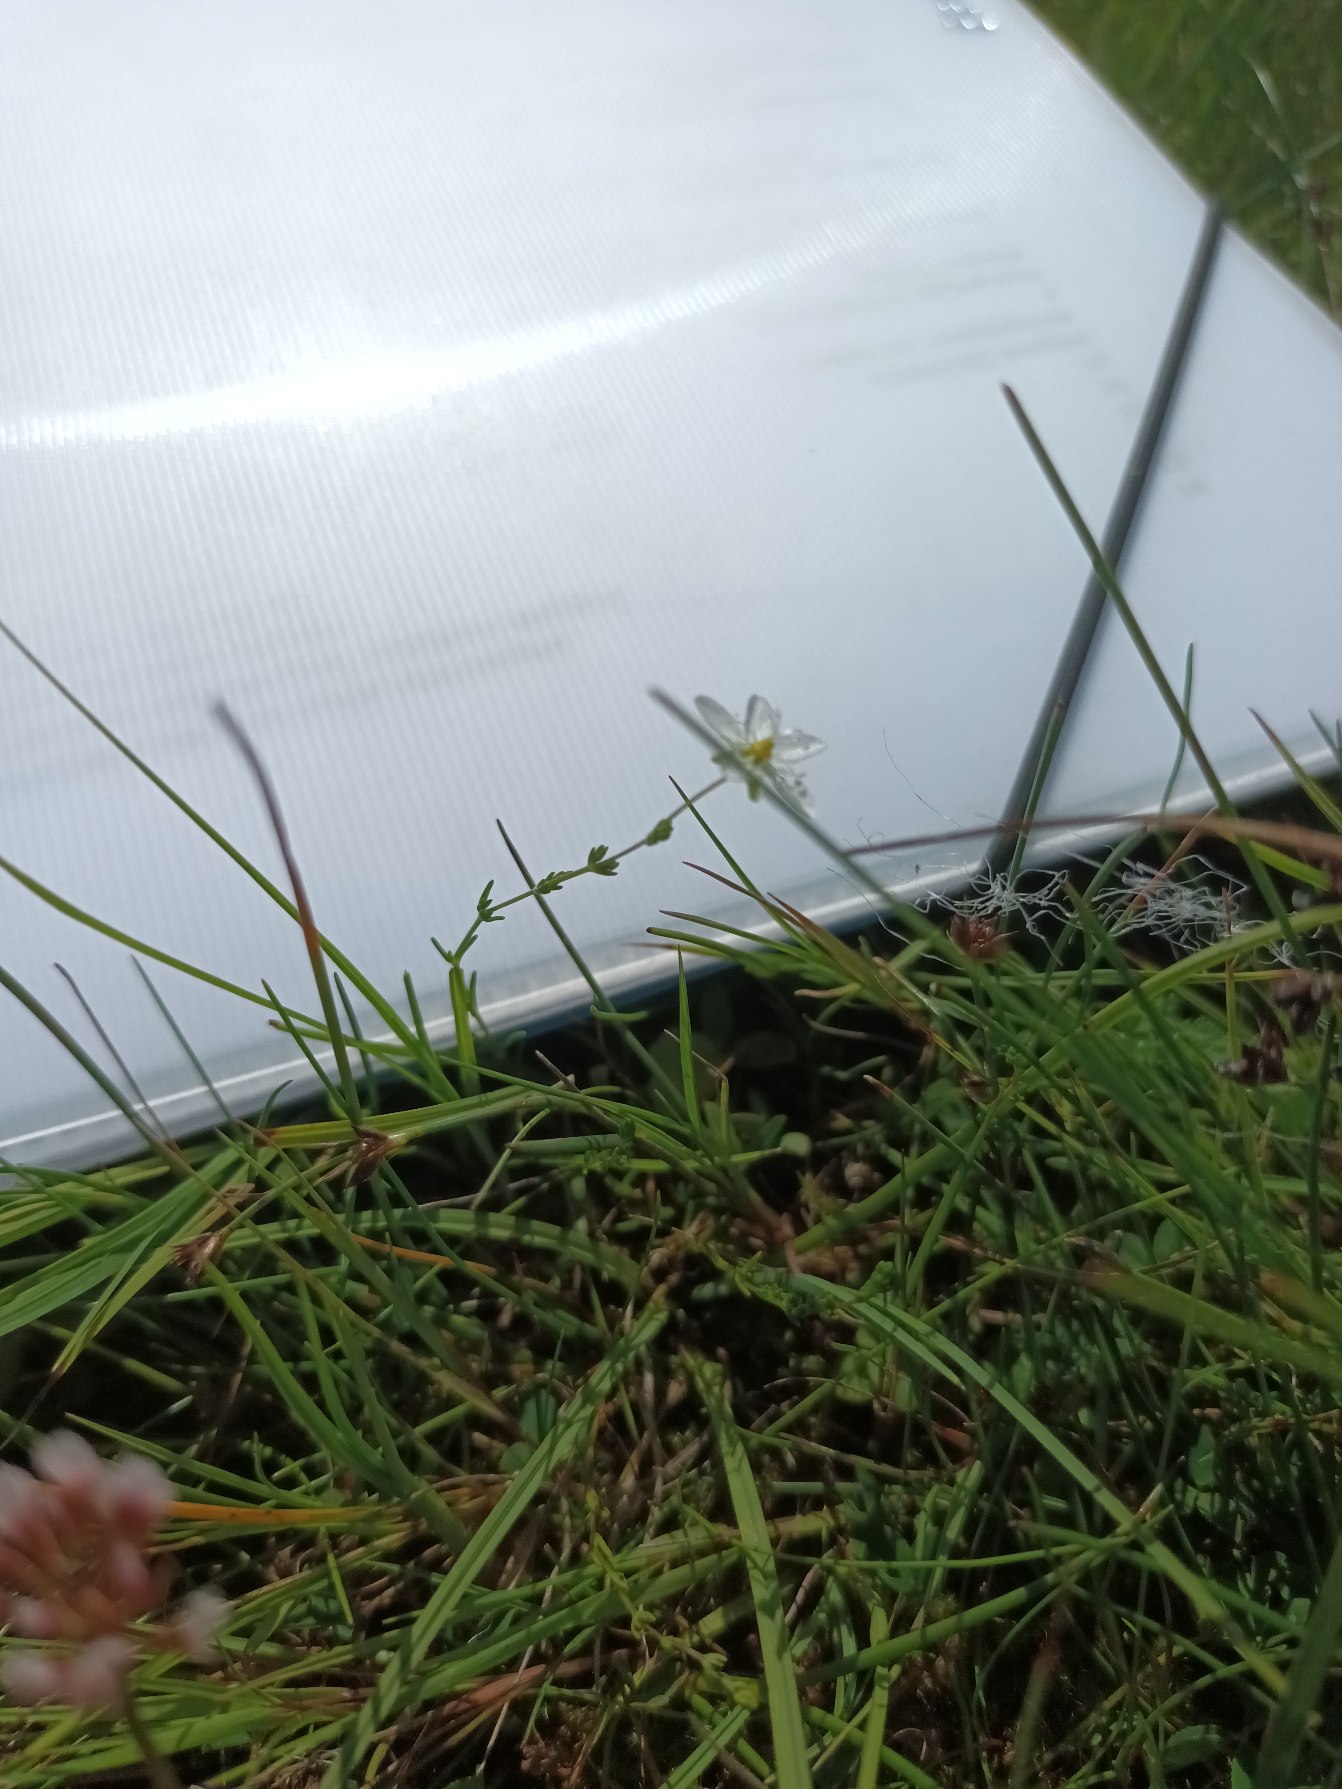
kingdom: Plantae
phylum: Tracheophyta
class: Magnoliopsida
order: Caryophyllales
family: Caryophyllaceae
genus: Sagina
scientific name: Sagina nodosa
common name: Knude-firling
